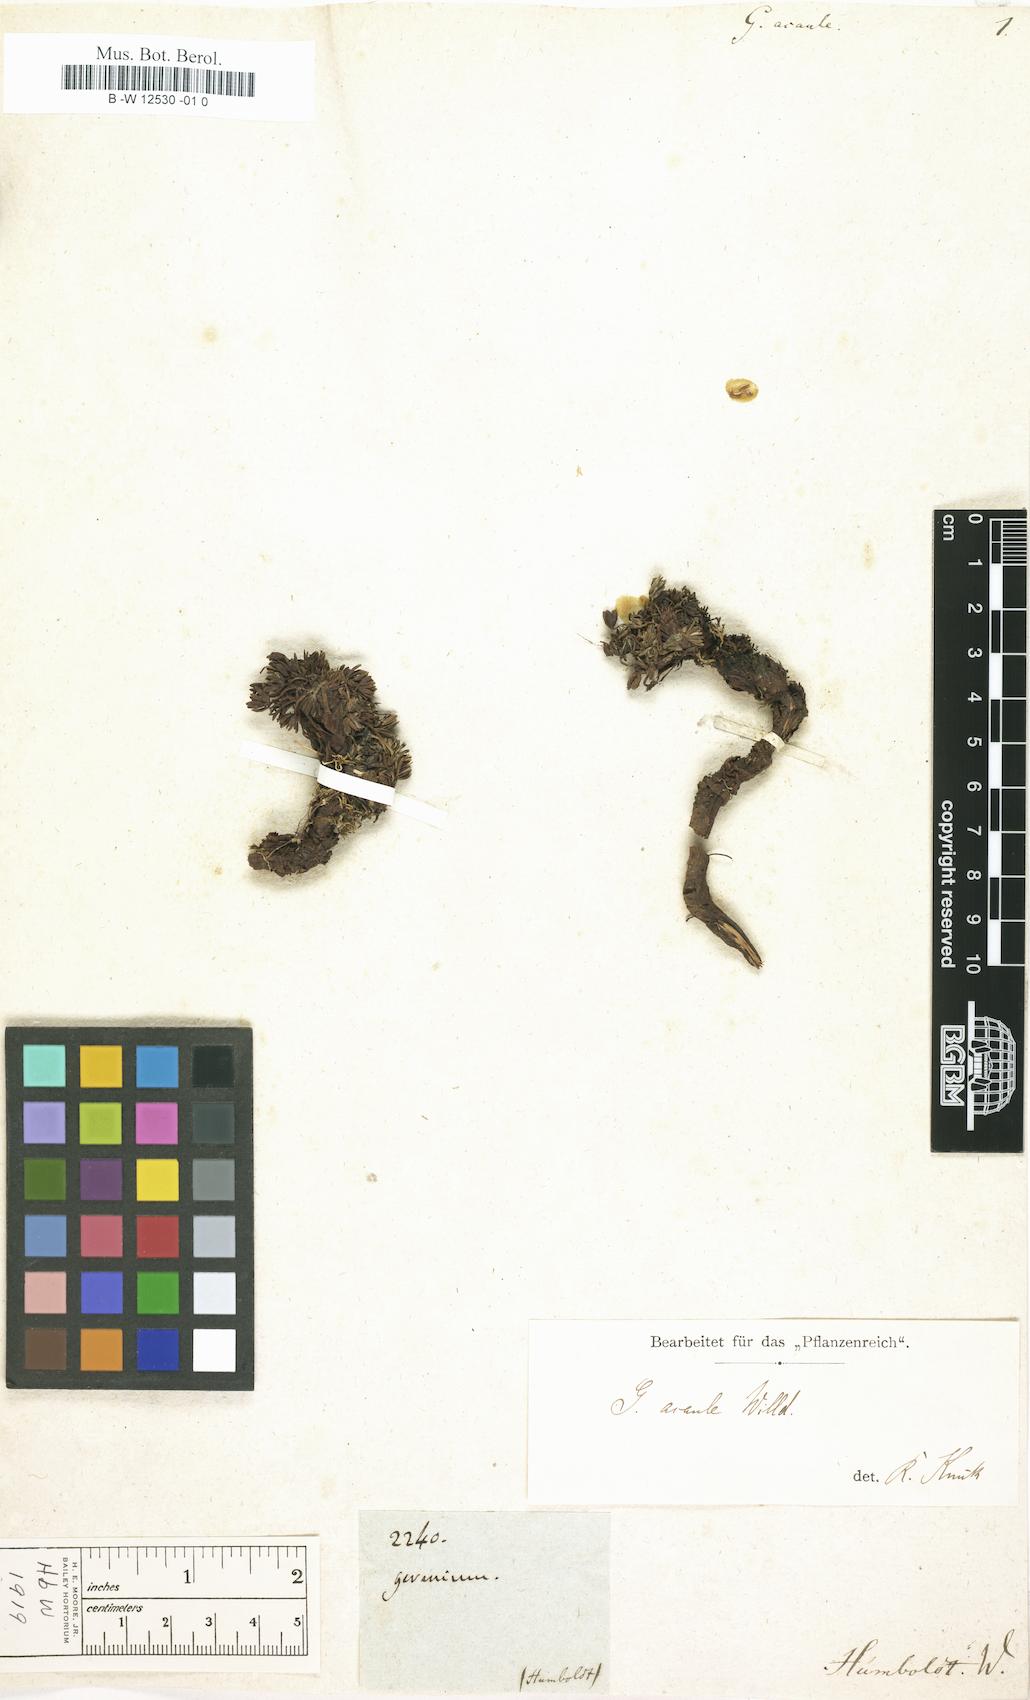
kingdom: Plantae
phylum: Tracheophyta
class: Magnoliopsida
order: Geraniales
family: Geraniaceae
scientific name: Geraniaceae
